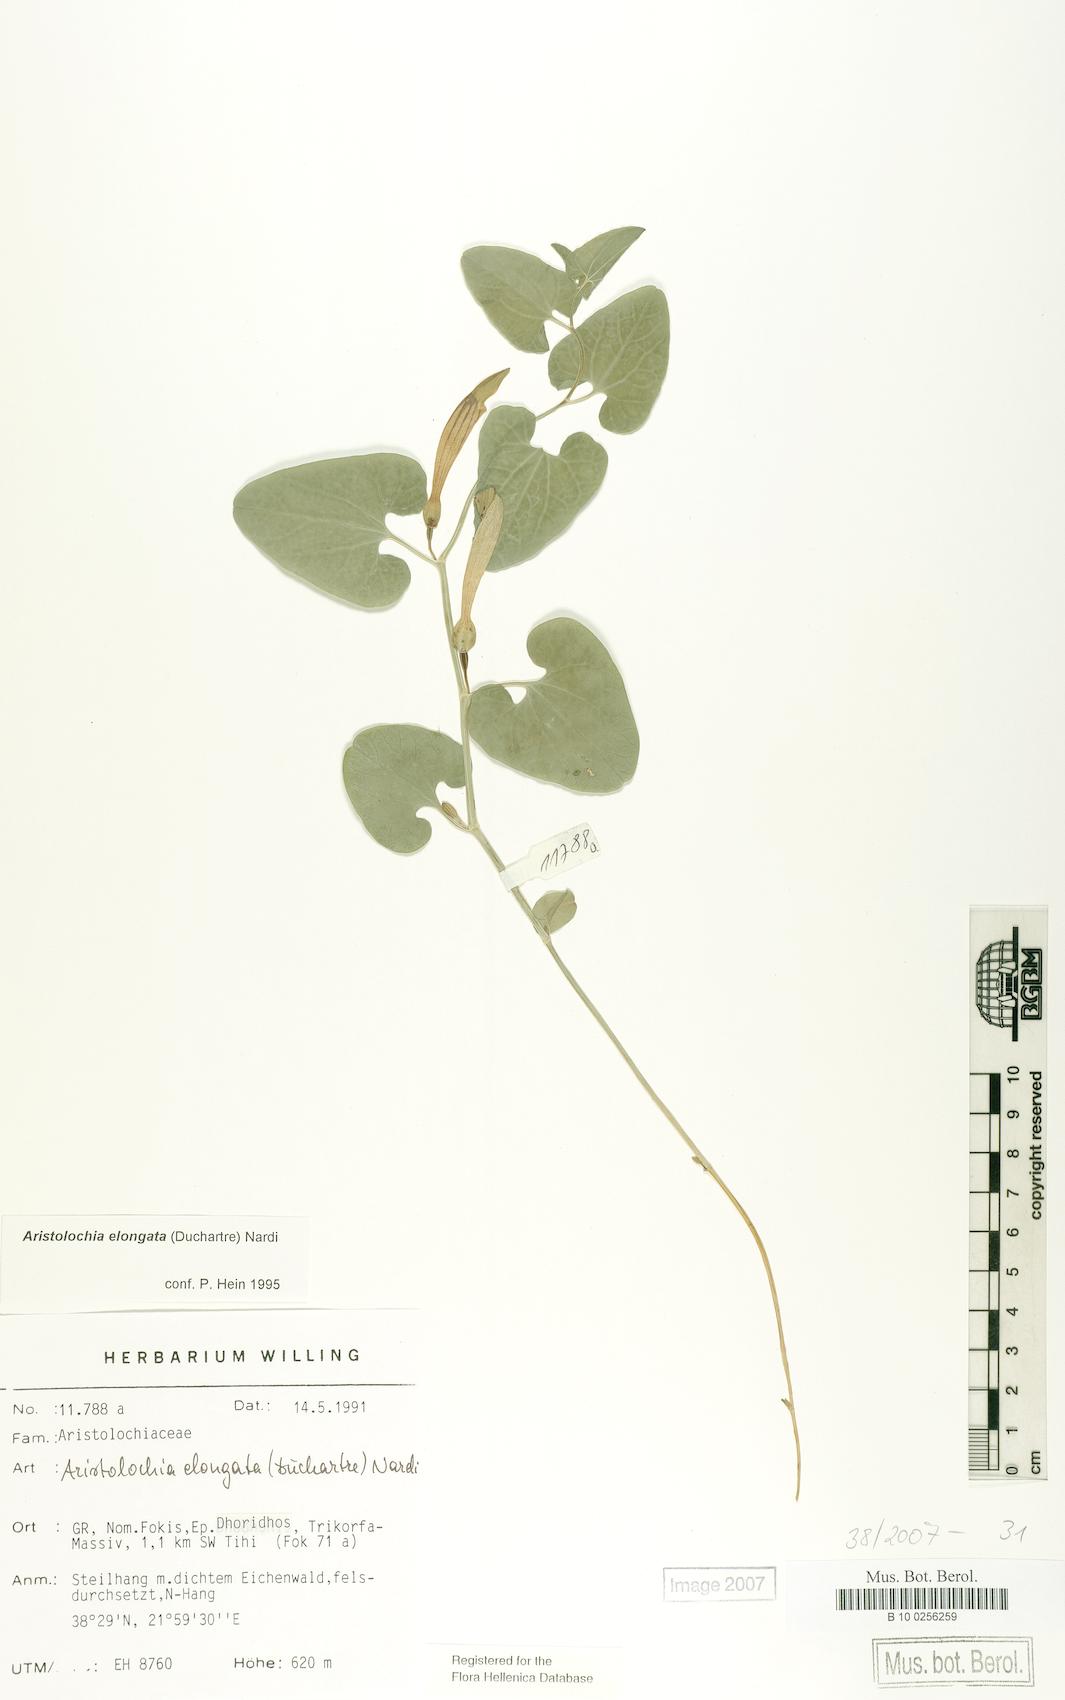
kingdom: Plantae
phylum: Tracheophyta
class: Magnoliopsida
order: Piperales
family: Aristolochiaceae
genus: Aristolochia
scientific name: Aristolochia nardiana
